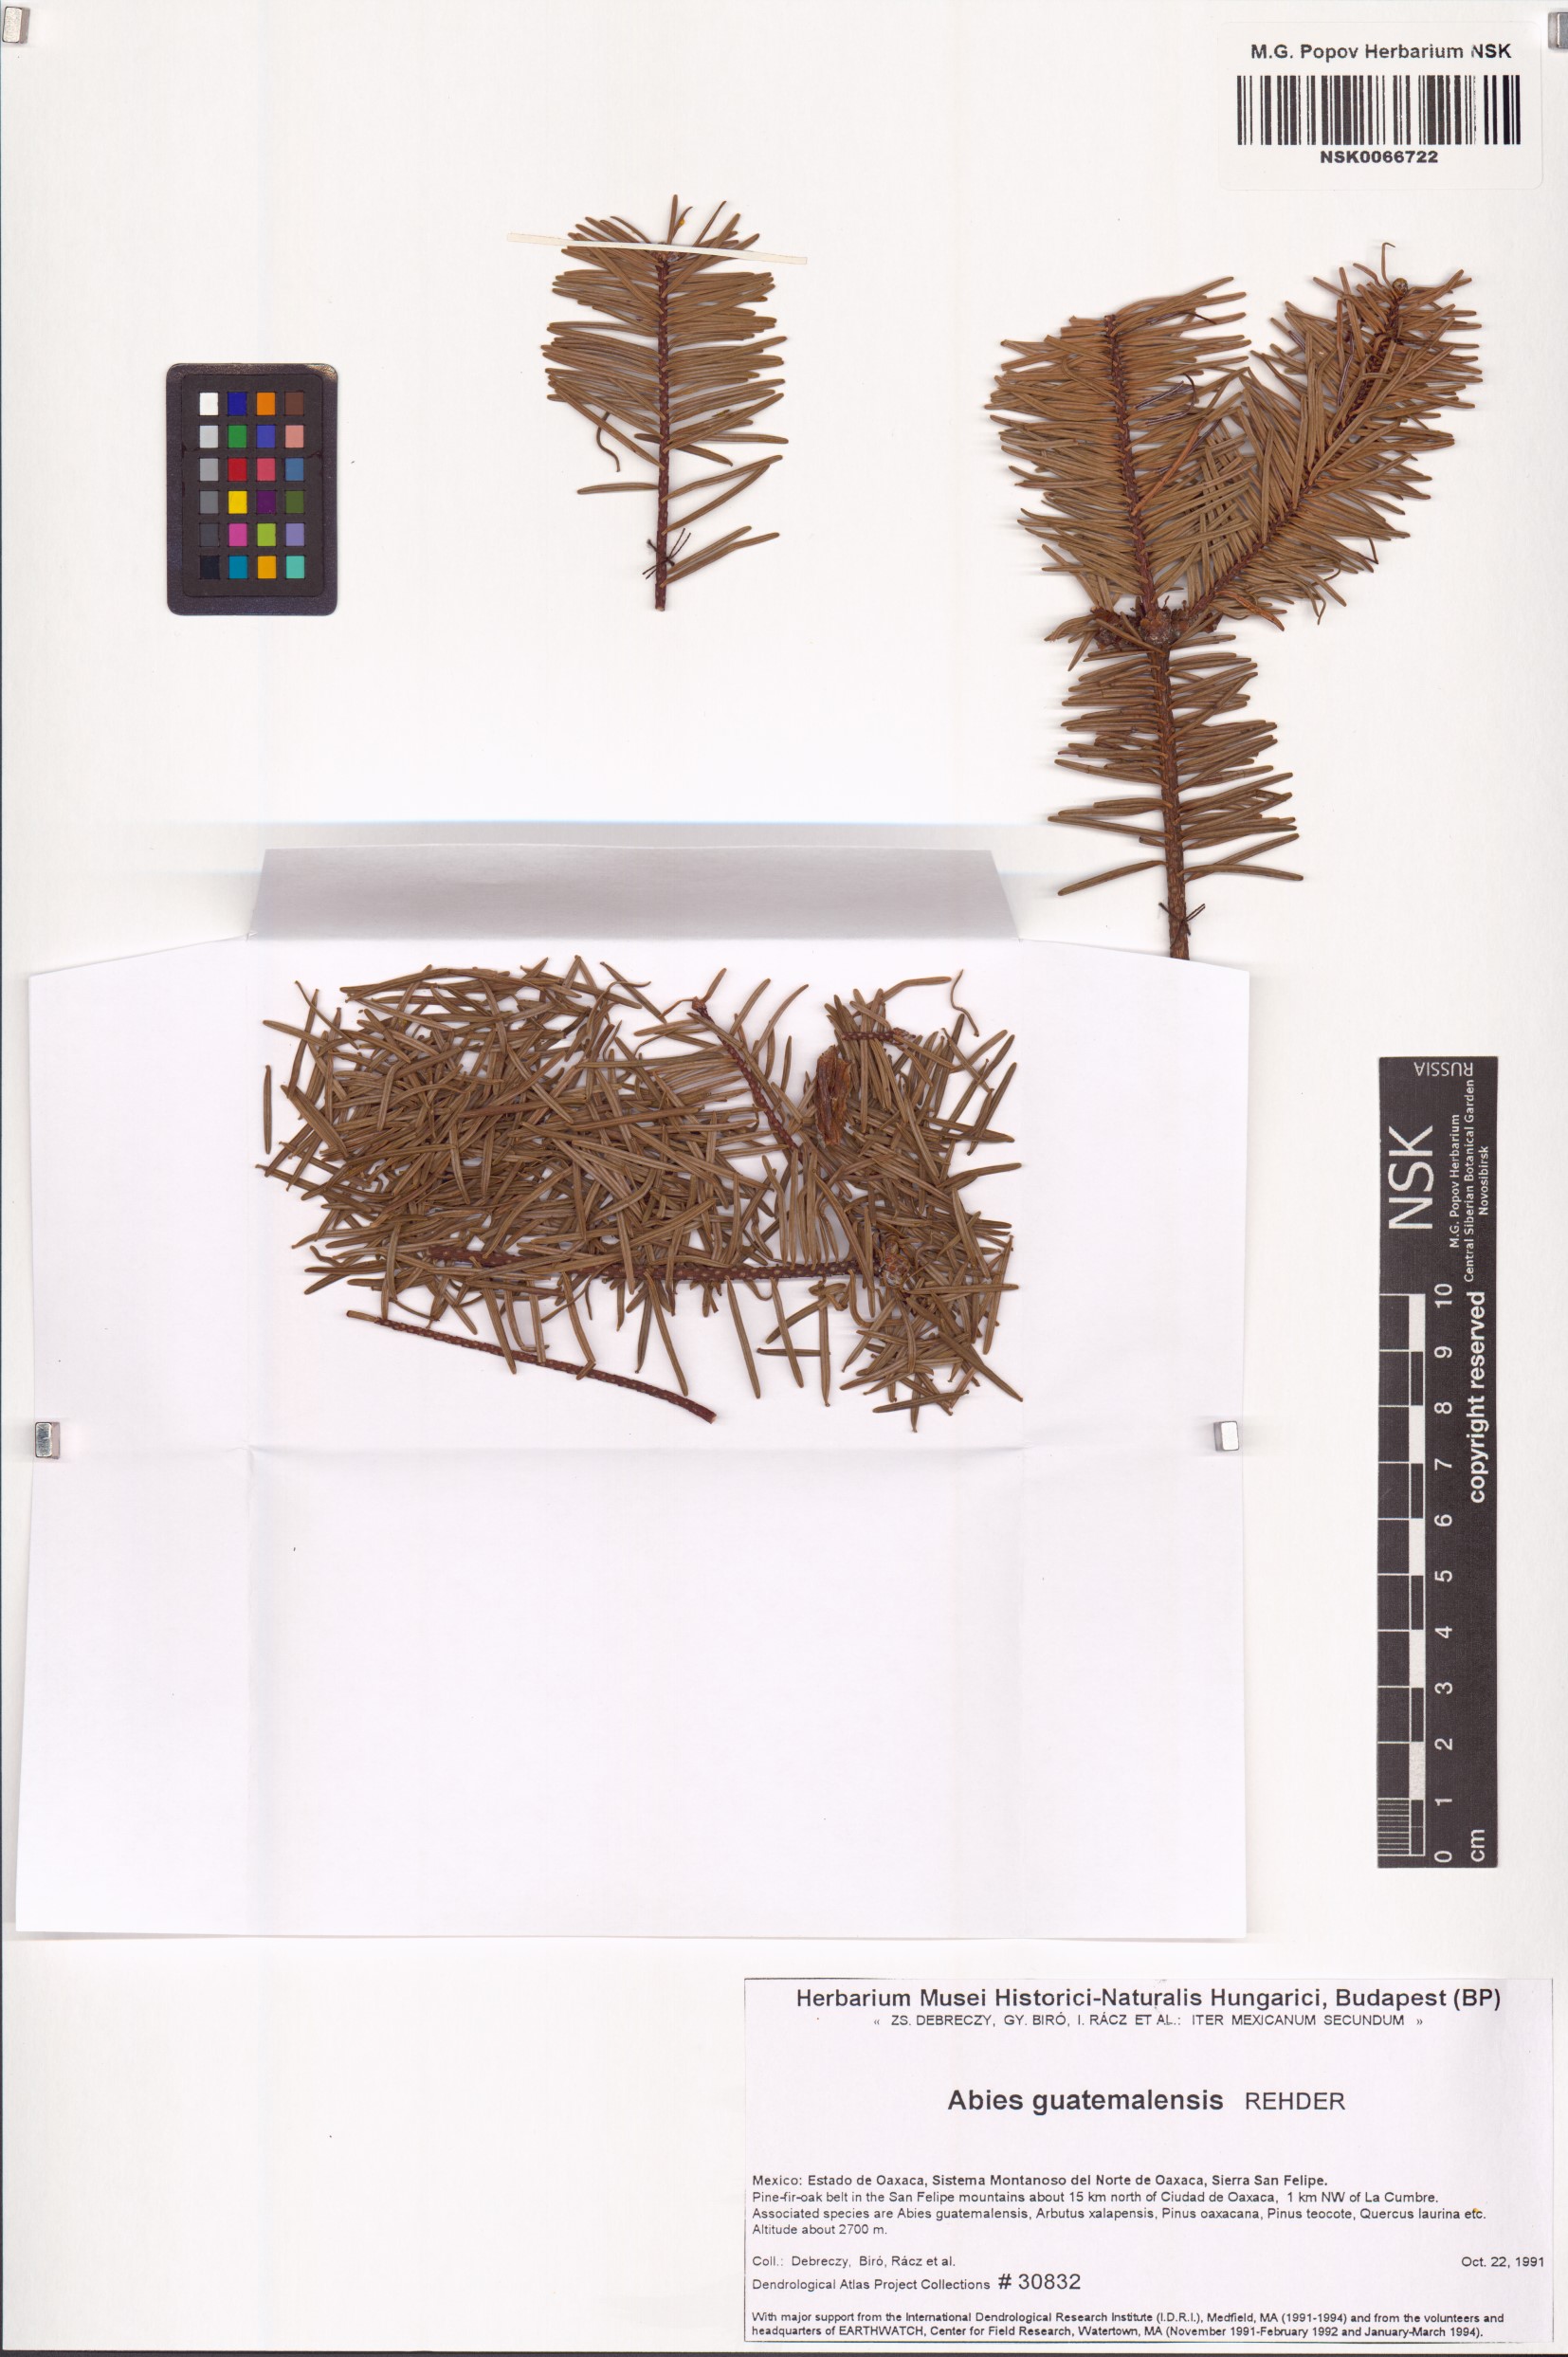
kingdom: Plantae
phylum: Tracheophyta
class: Pinopsida
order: Pinales
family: Pinaceae
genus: Abies
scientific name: Abies guatemalensis
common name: Guatemalan fir
